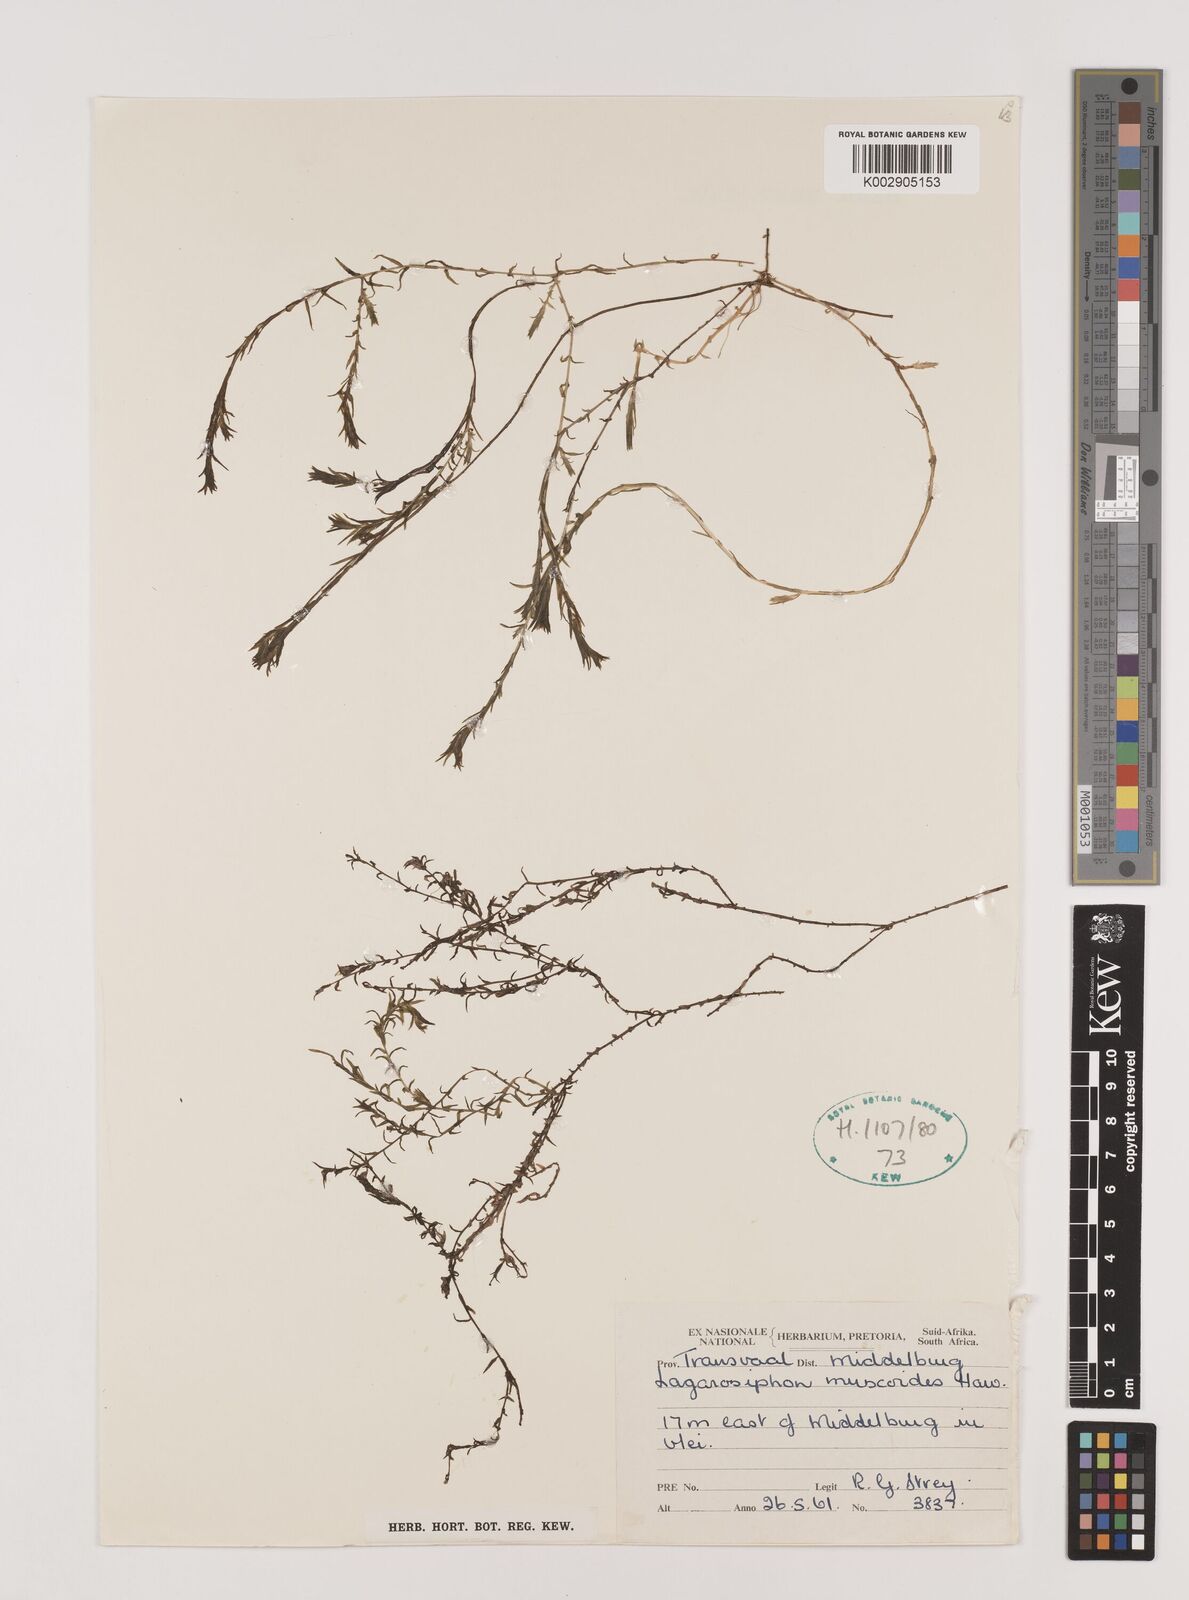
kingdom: Plantae
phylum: Tracheophyta
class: Liliopsida
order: Alismatales
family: Hydrocharitaceae
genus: Lagarosiphon
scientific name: Lagarosiphon muscoides
